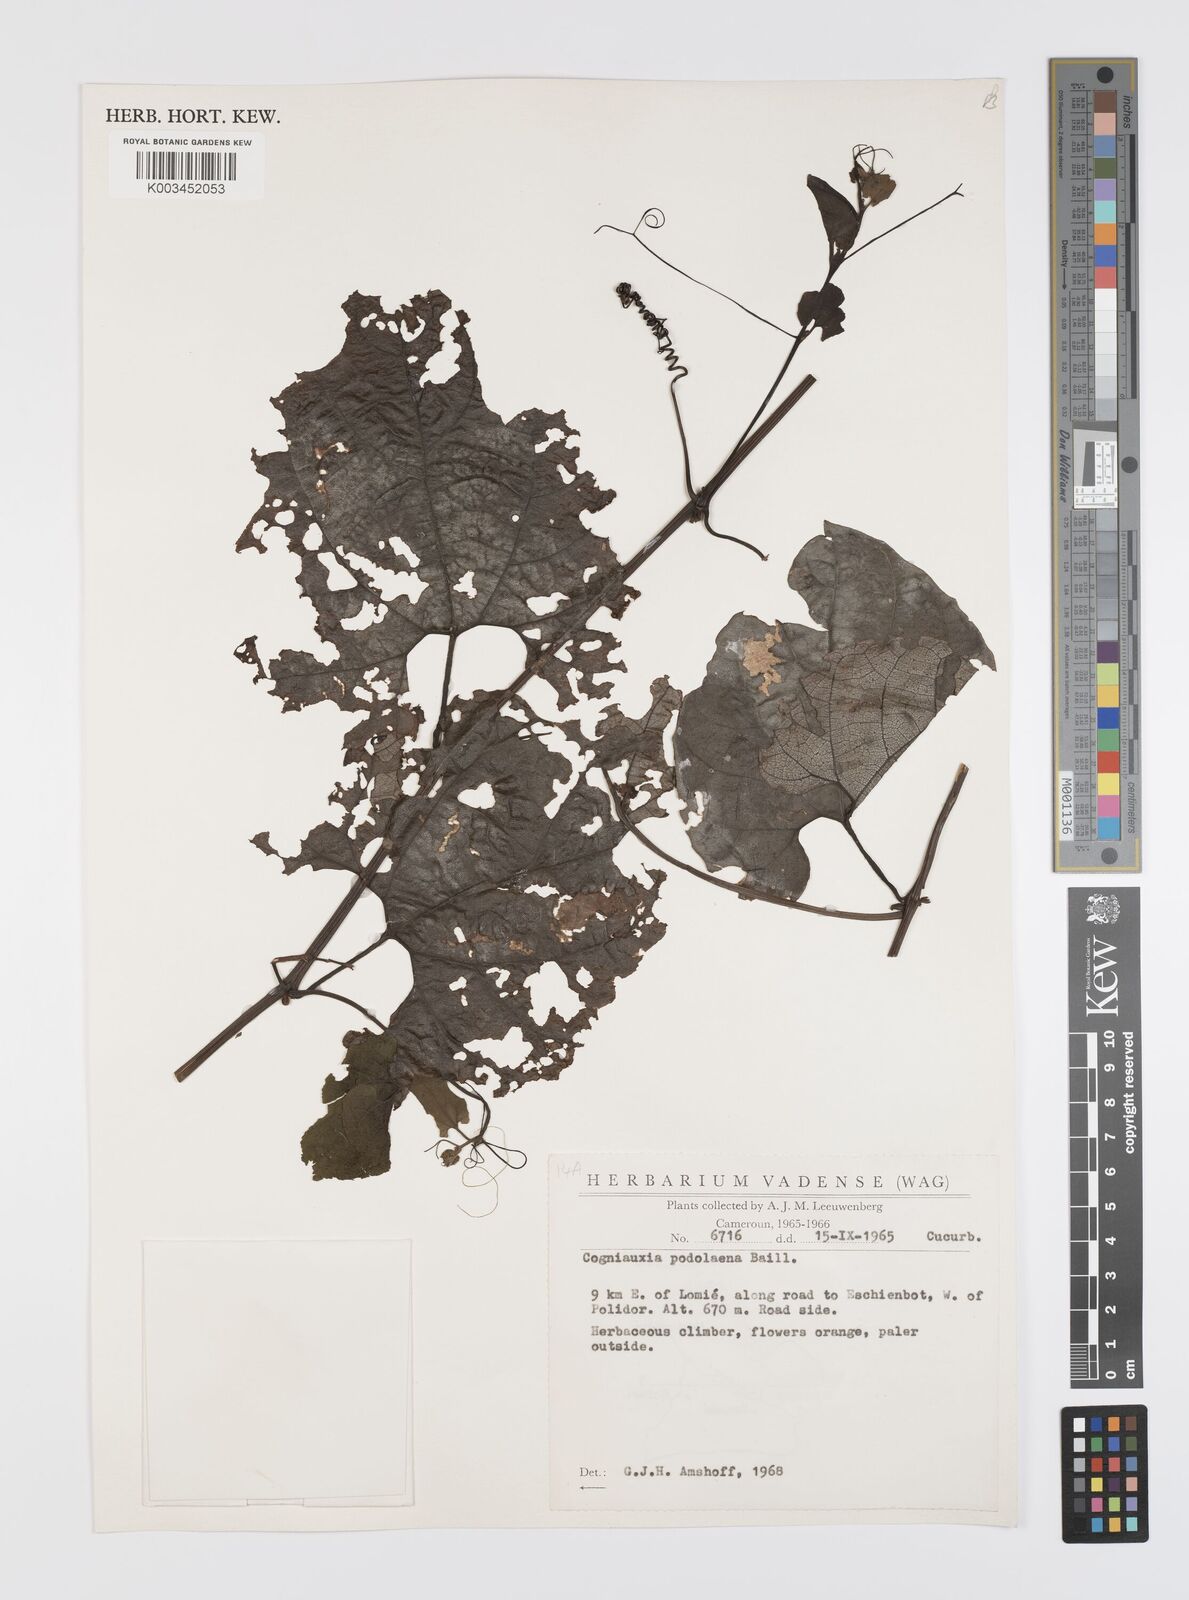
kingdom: Plantae
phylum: Tracheophyta
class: Magnoliopsida
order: Cucurbitales
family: Cucurbitaceae
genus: Cogniauxia
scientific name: Cogniauxia podolaena
